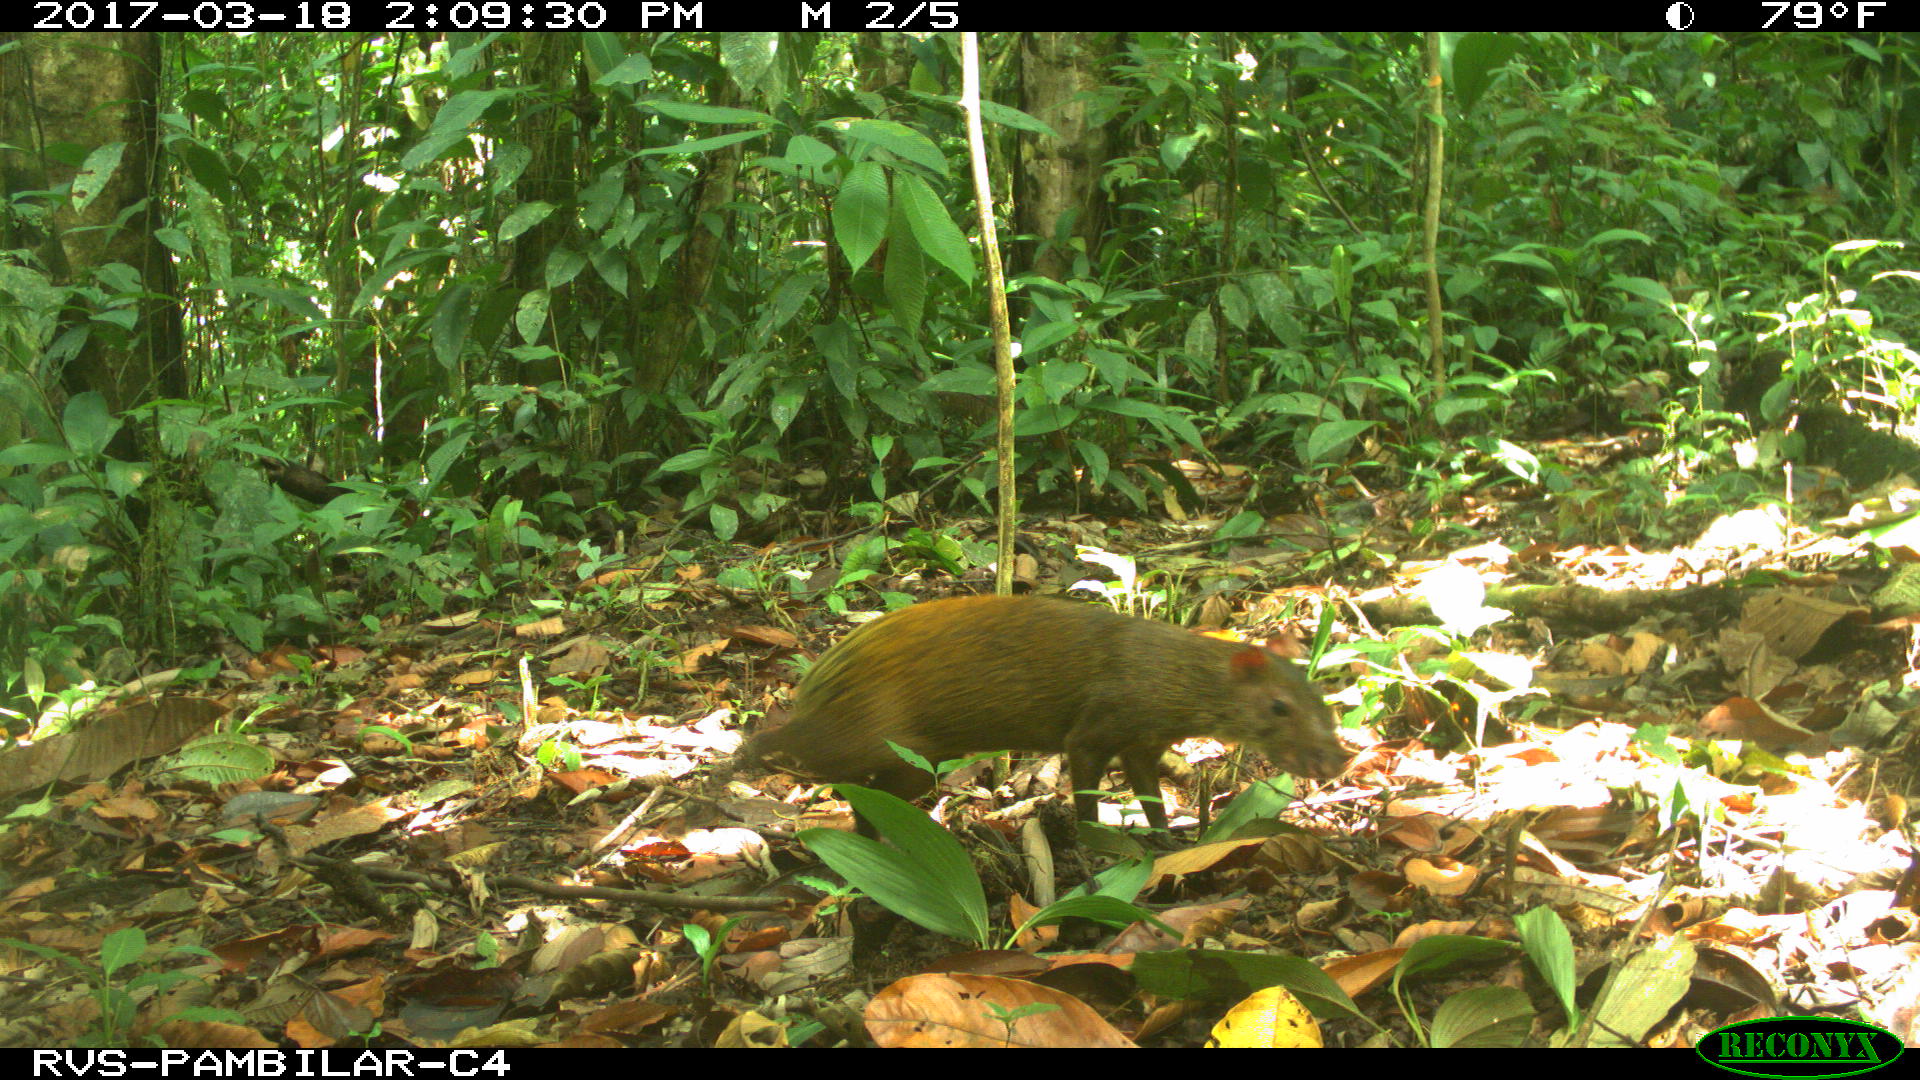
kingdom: Animalia
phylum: Chordata
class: Mammalia
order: Rodentia
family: Dasyproctidae
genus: Dasyprocta
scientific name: Dasyprocta punctata
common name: Central american agouti
